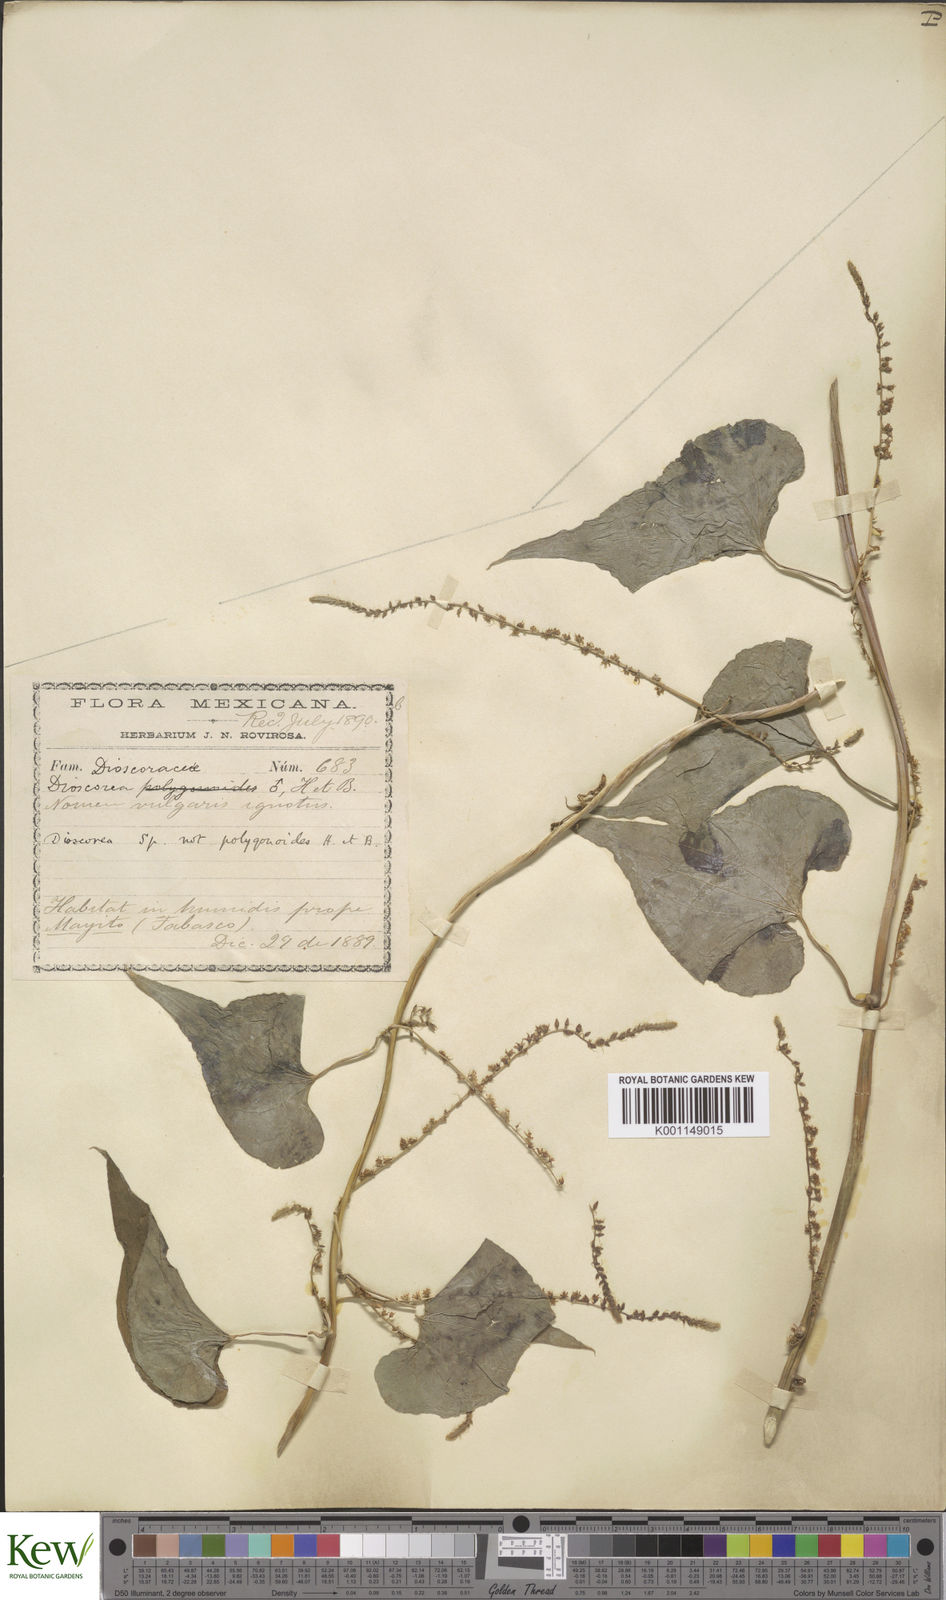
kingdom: Plantae
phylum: Tracheophyta
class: Liliopsida
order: Dioscoreales
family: Dioscoreaceae
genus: Dioscorea
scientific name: Dioscorea densiflora
